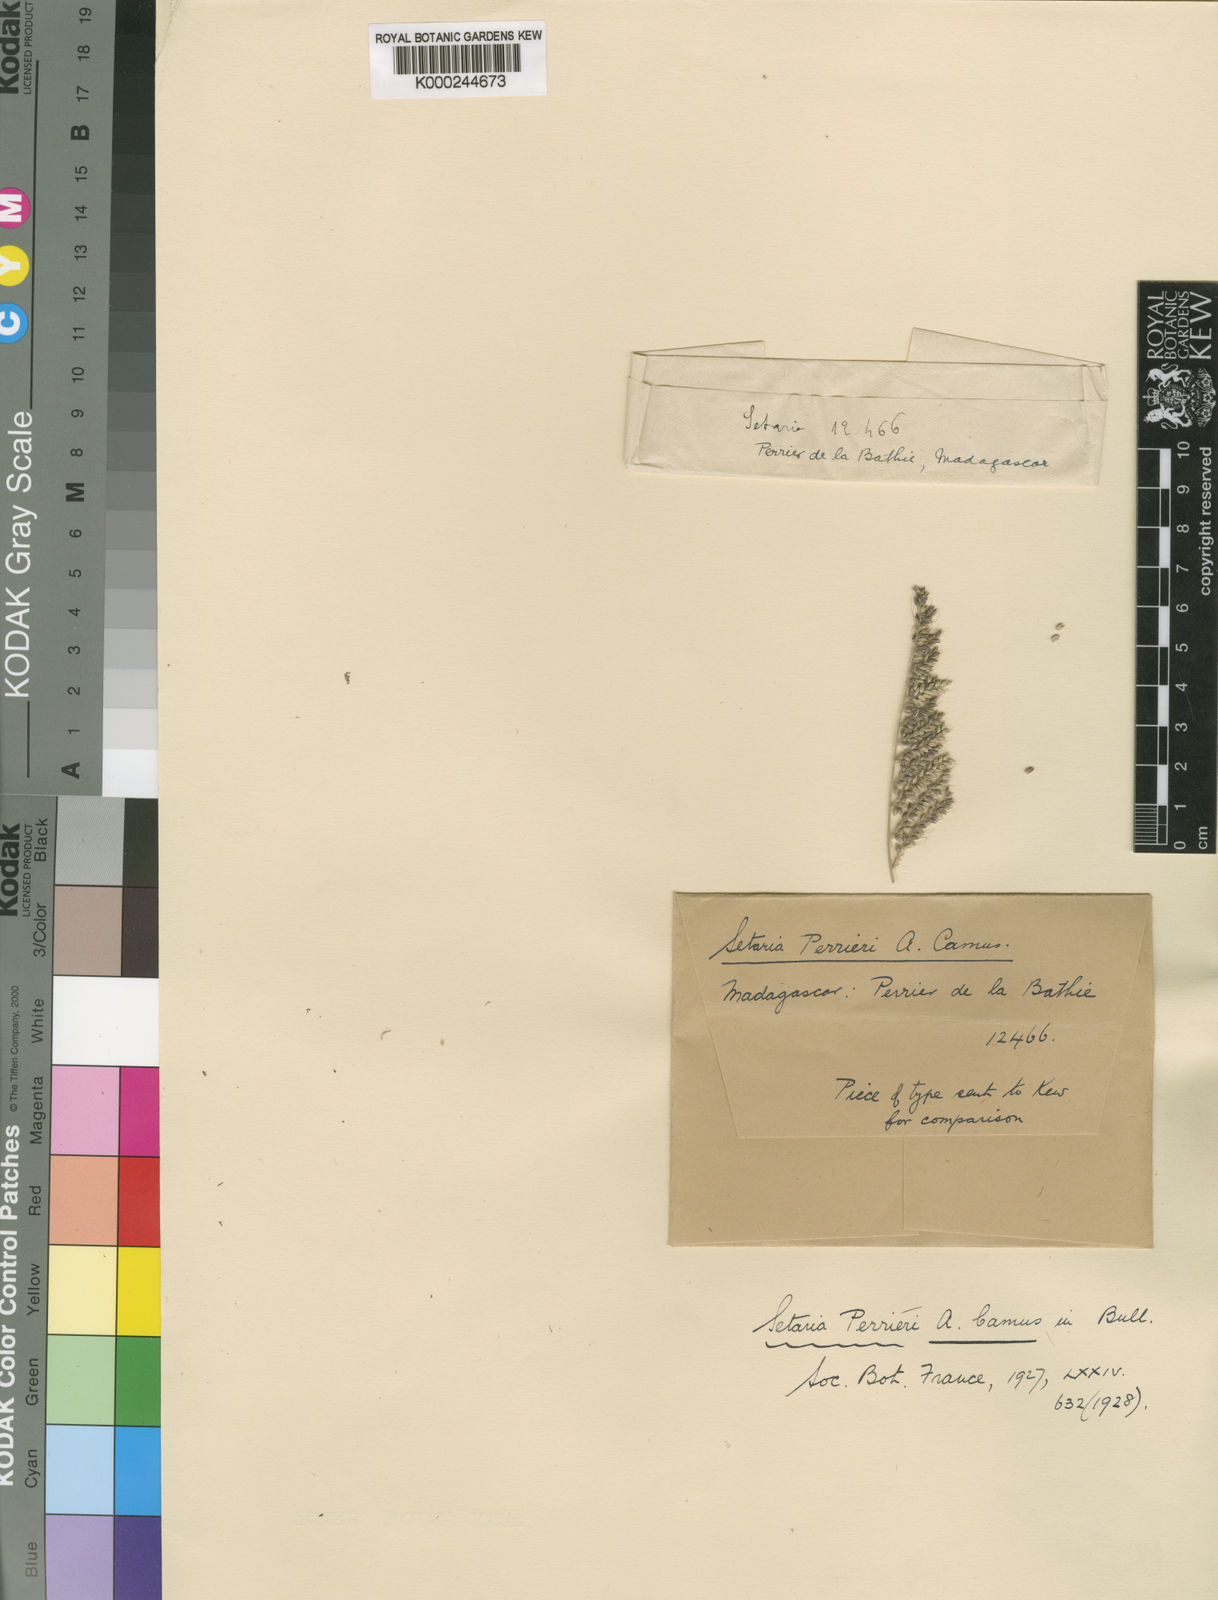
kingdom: Plantae
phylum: Tracheophyta
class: Liliopsida
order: Poales
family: Poaceae
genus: Setaria
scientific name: Setaria perrieri
